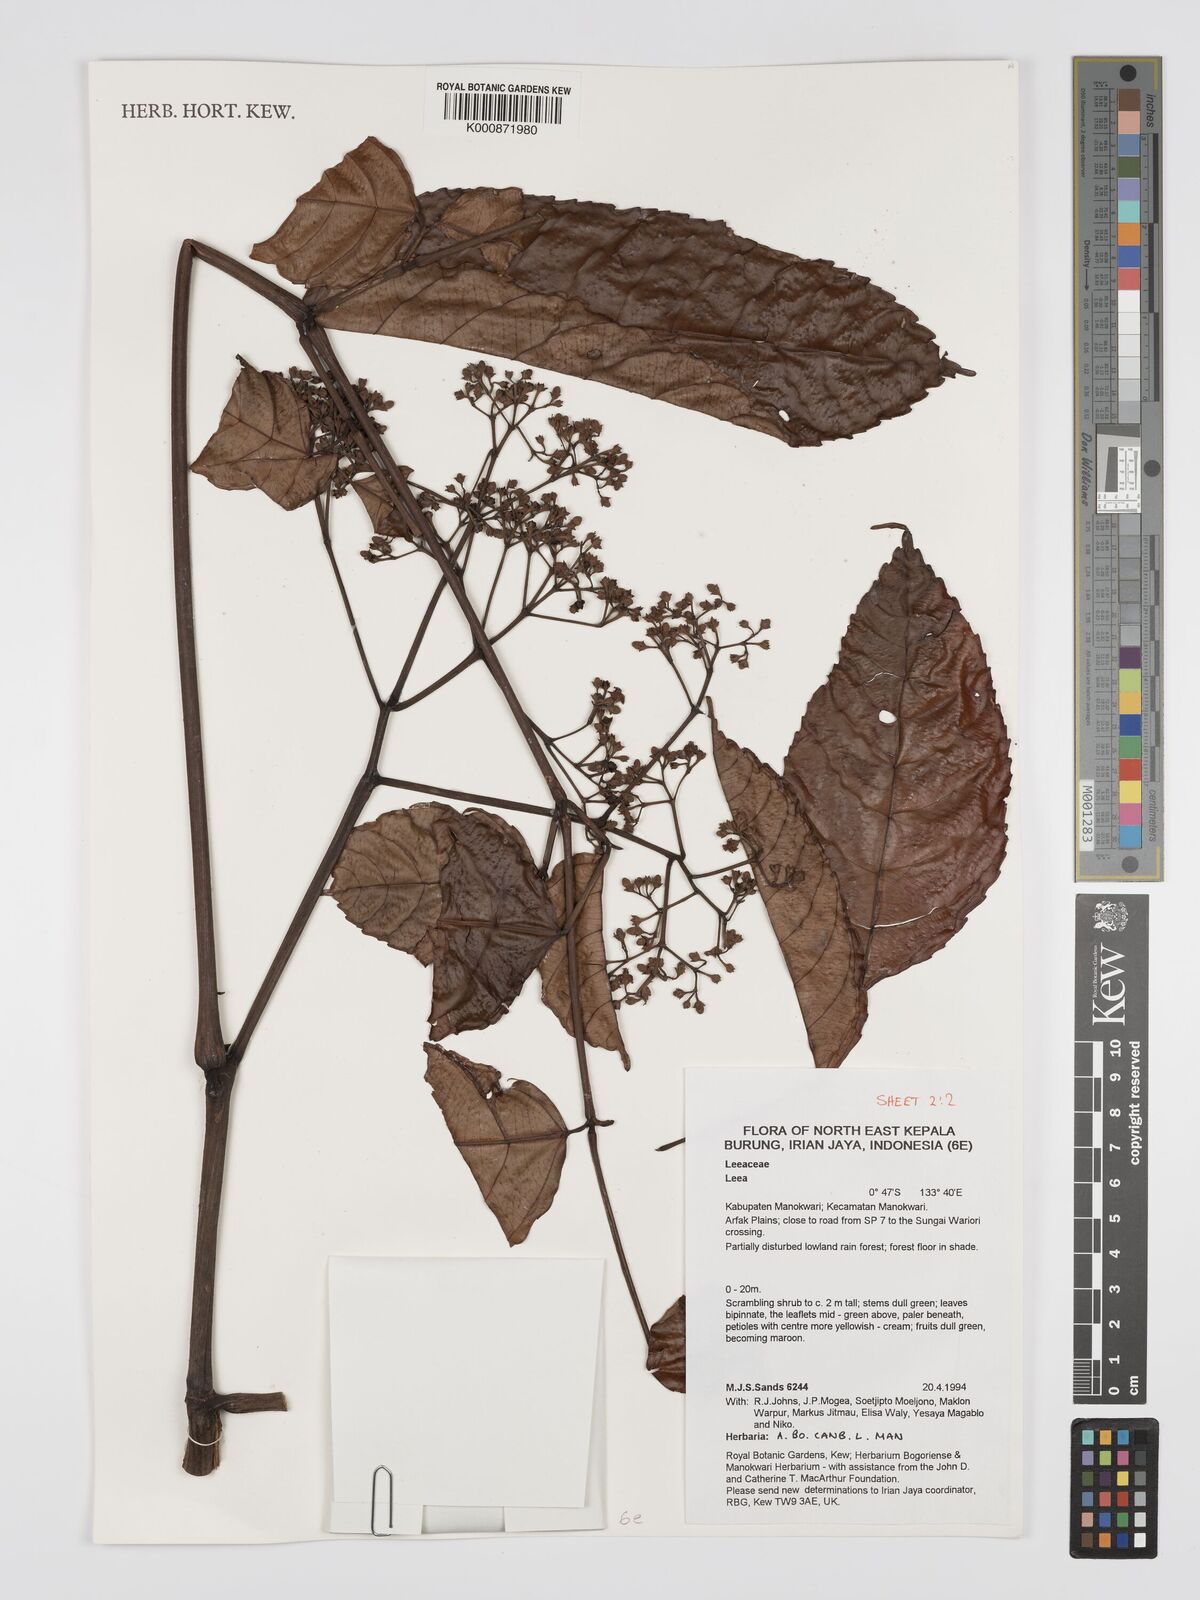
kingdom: Plantae
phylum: Tracheophyta
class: Magnoliopsida
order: Vitales
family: Vitaceae
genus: Leea
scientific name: Leea
